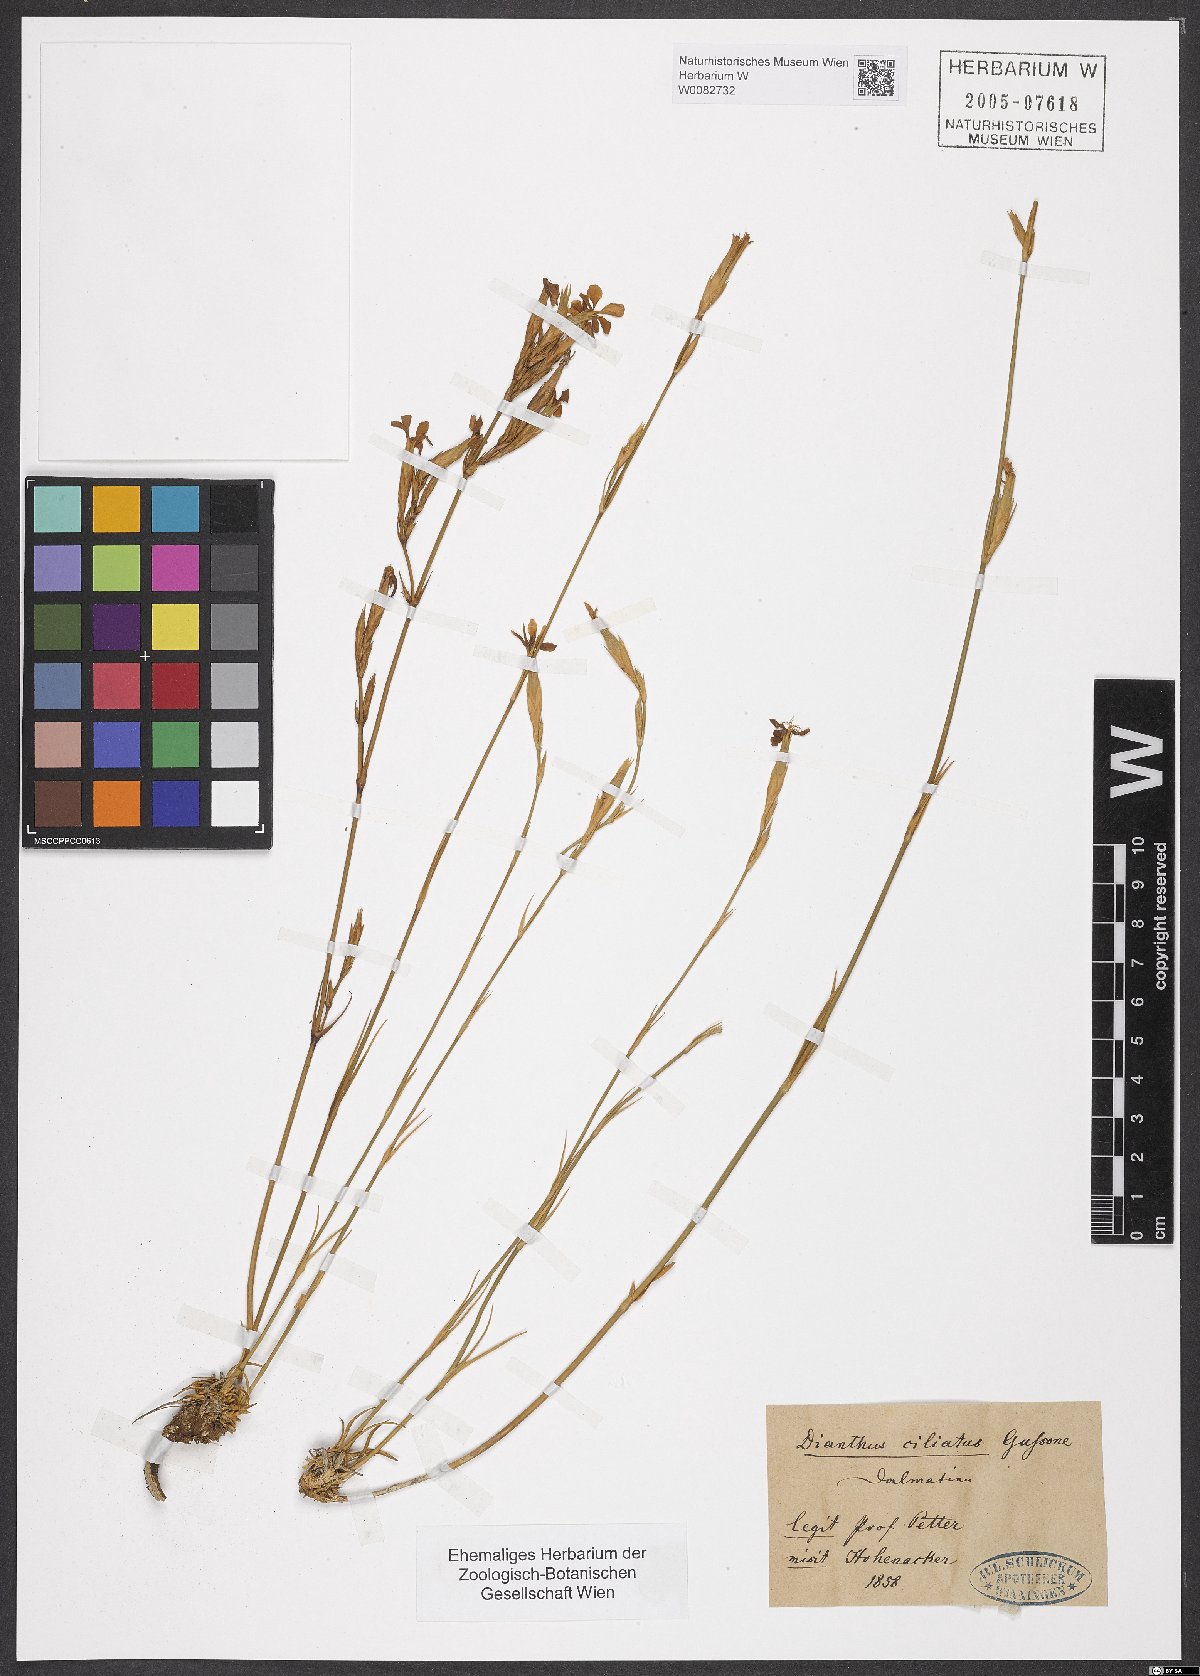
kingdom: Plantae
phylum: Tracheophyta
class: Magnoliopsida
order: Caryophyllales
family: Caryophyllaceae
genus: Dianthus
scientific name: Dianthus ciliatus
